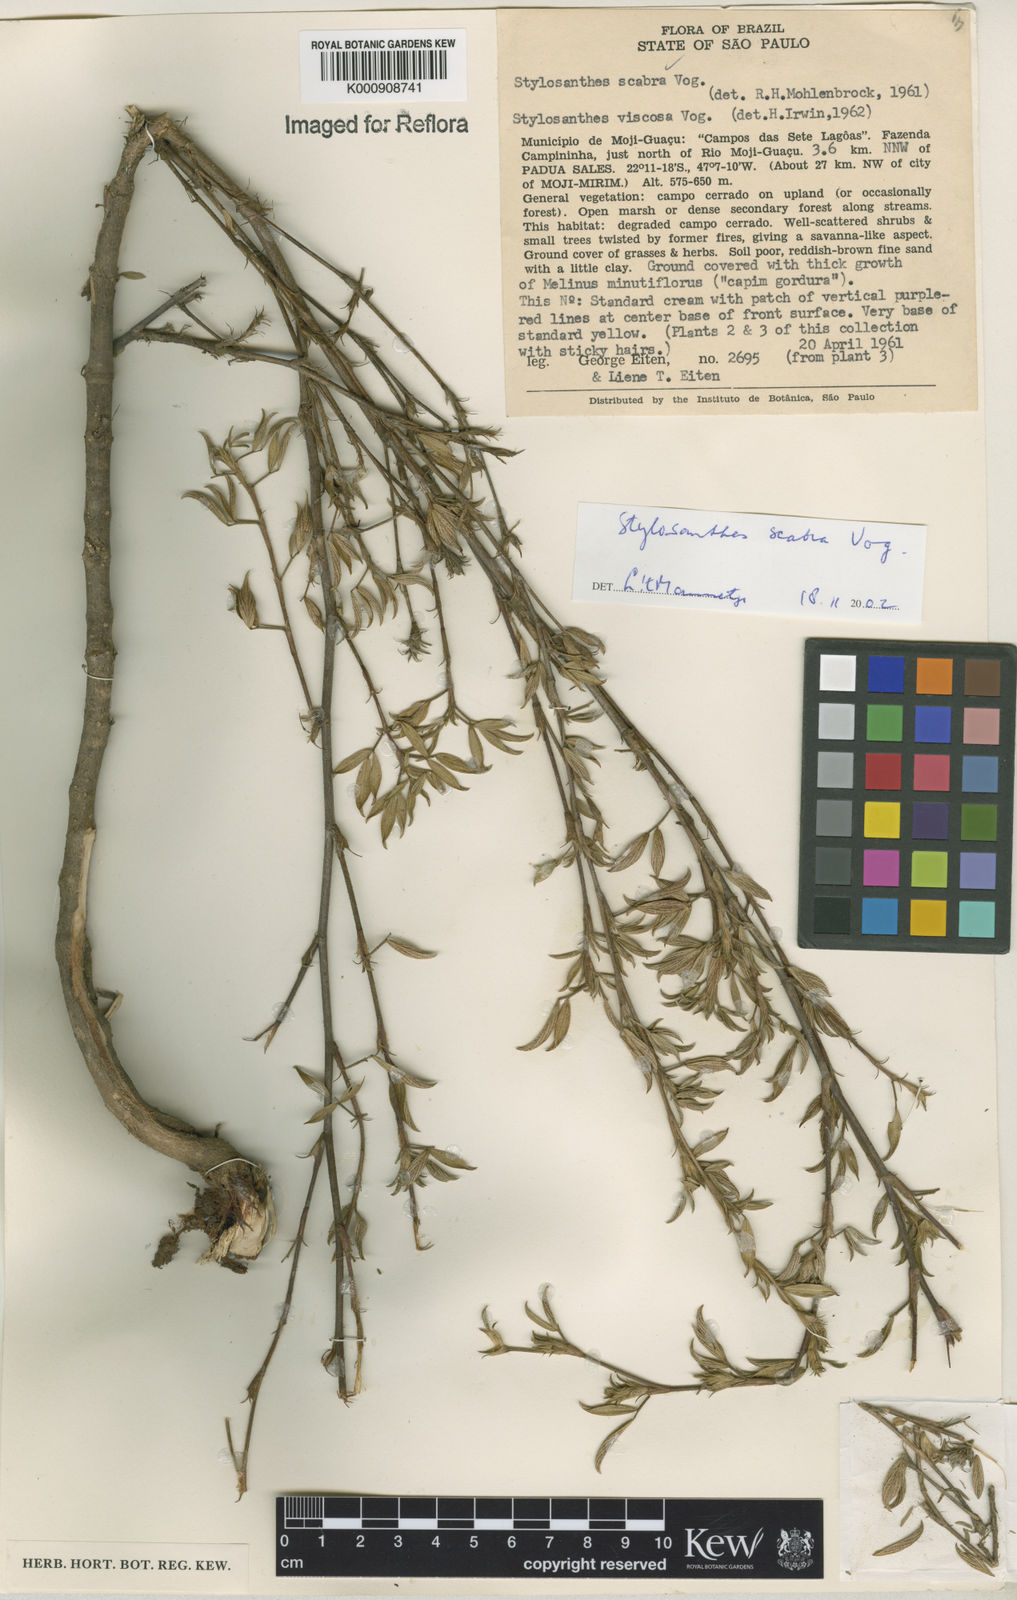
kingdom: Plantae
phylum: Tracheophyta
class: Magnoliopsida
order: Fabales
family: Fabaceae
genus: Stylosanthes
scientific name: Stylosanthes scabra
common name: Pencilflower
